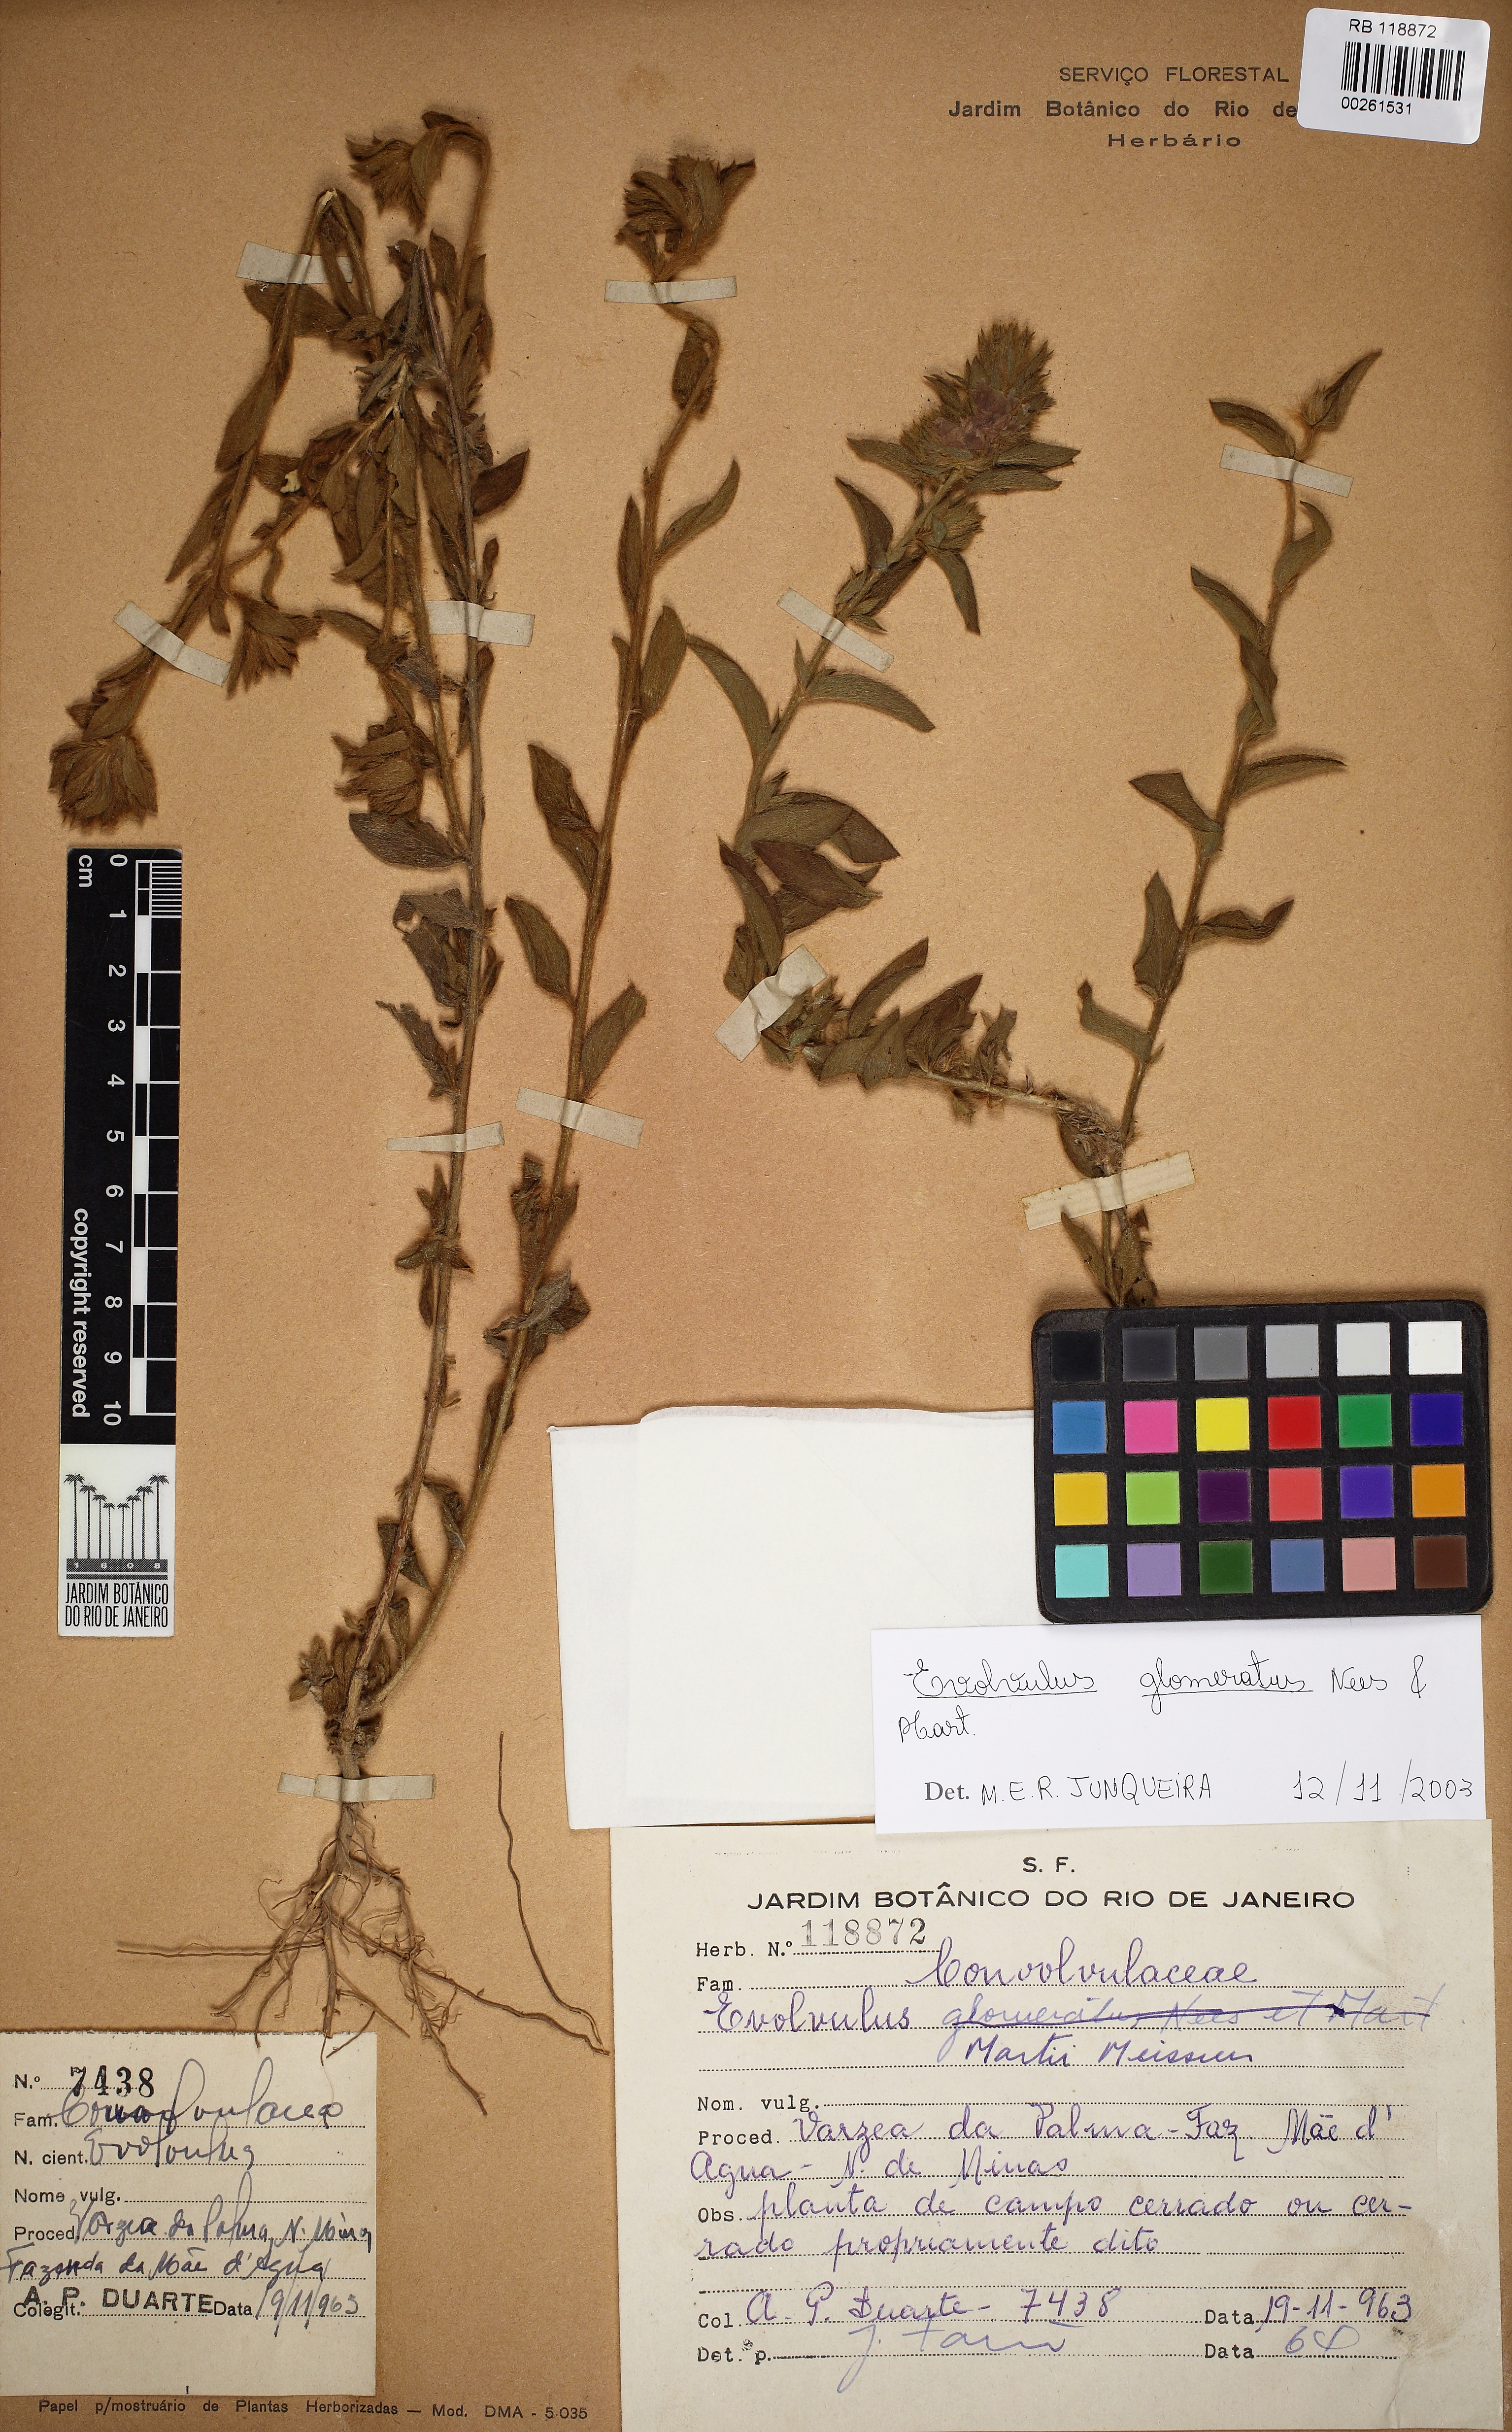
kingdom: Plantae
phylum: Tracheophyta
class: Magnoliopsida
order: Solanales
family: Convolvulaceae
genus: Evolvulus
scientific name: Evolvulus glomeratus
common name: Brazilian dwarf morning-glory
